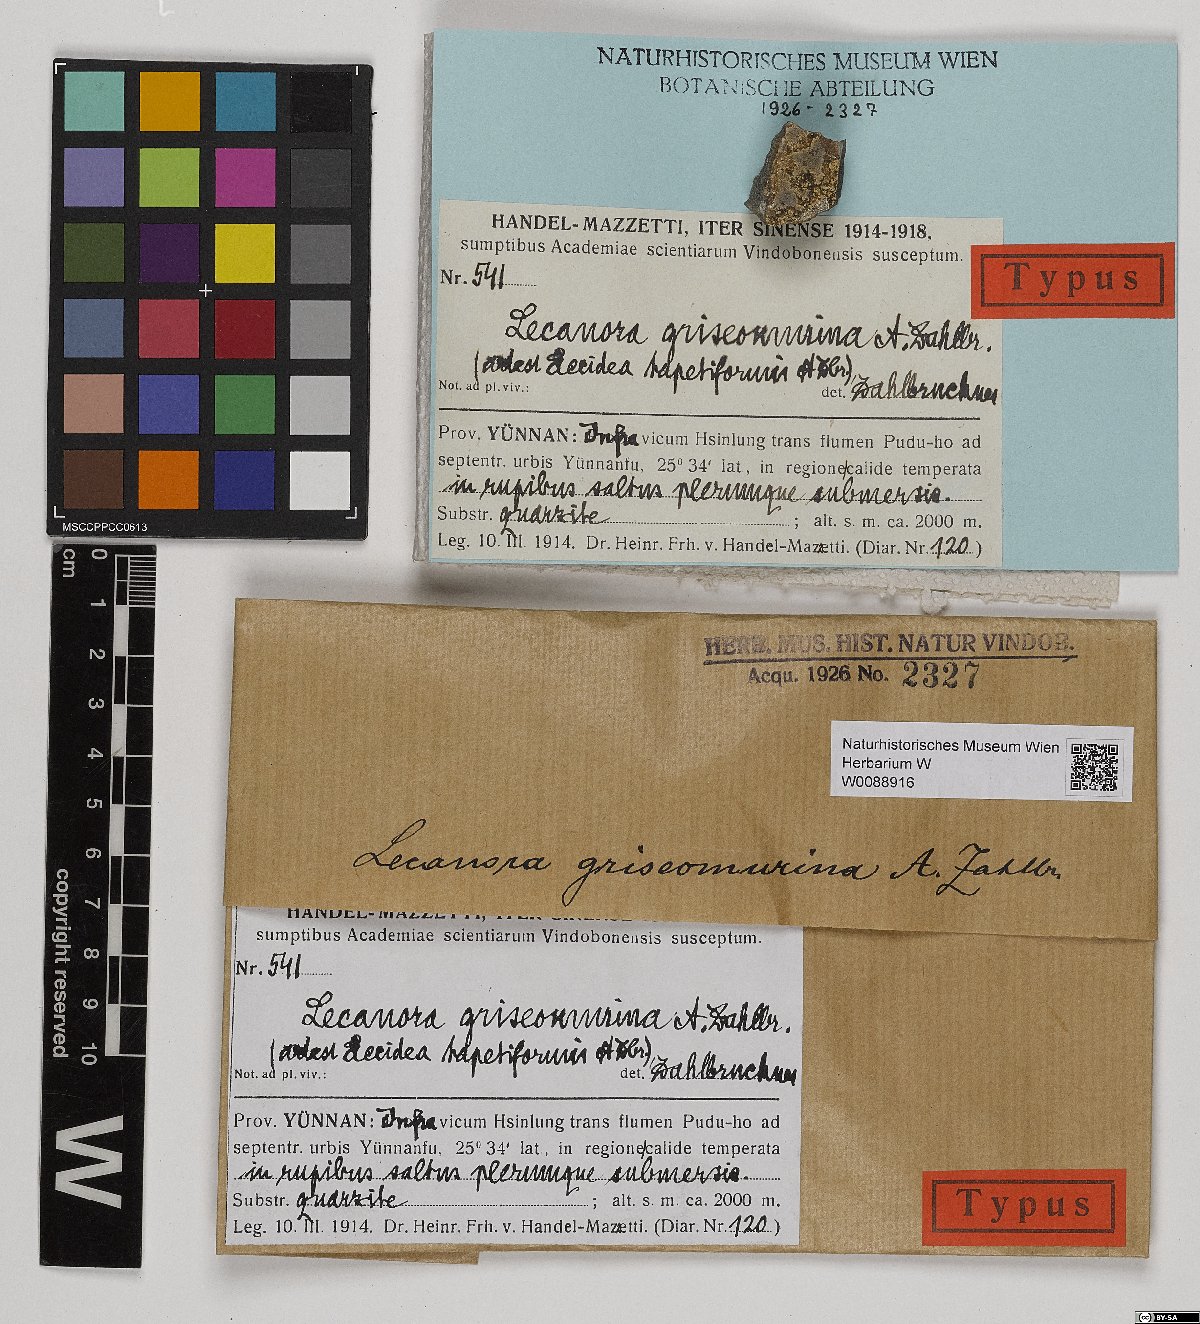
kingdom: Fungi
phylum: Ascomycota
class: Lecanoromycetes
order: Lecanorales
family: Lecanoraceae
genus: Lecanora
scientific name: Lecanora
